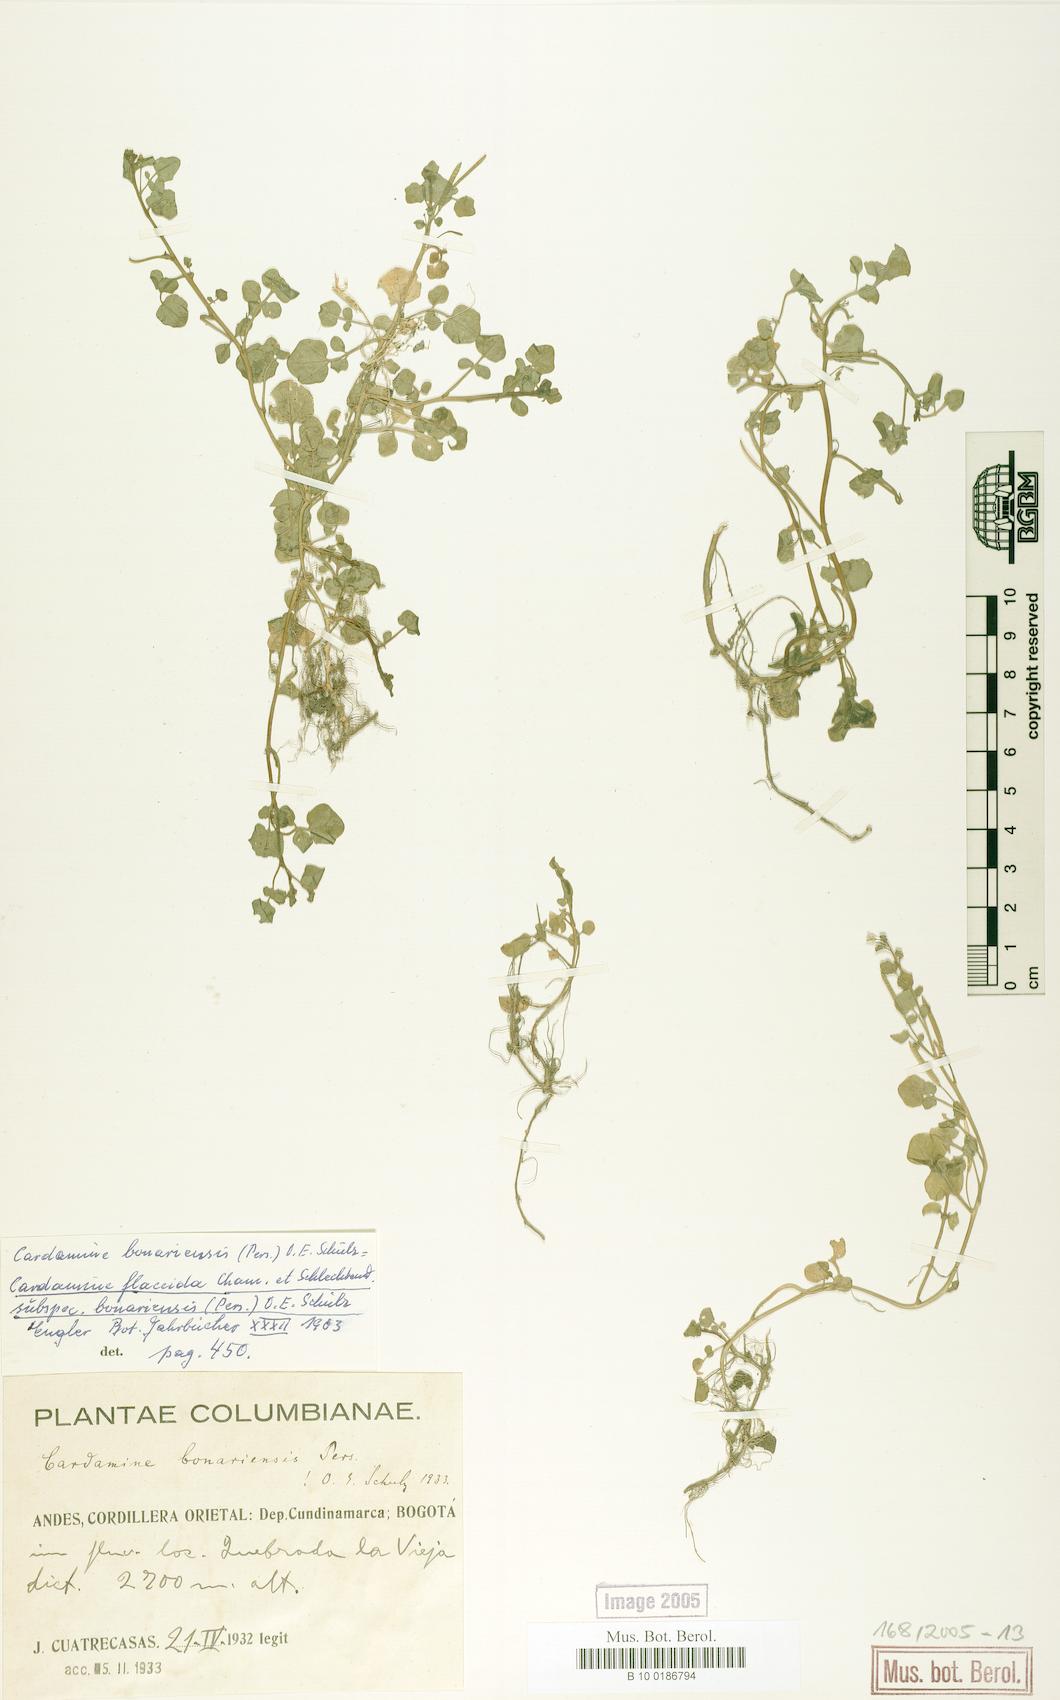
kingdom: Plantae
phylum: Tracheophyta
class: Magnoliopsida
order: Brassicales
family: Brassicaceae
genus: Cardamine
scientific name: Cardamine bonariensis
